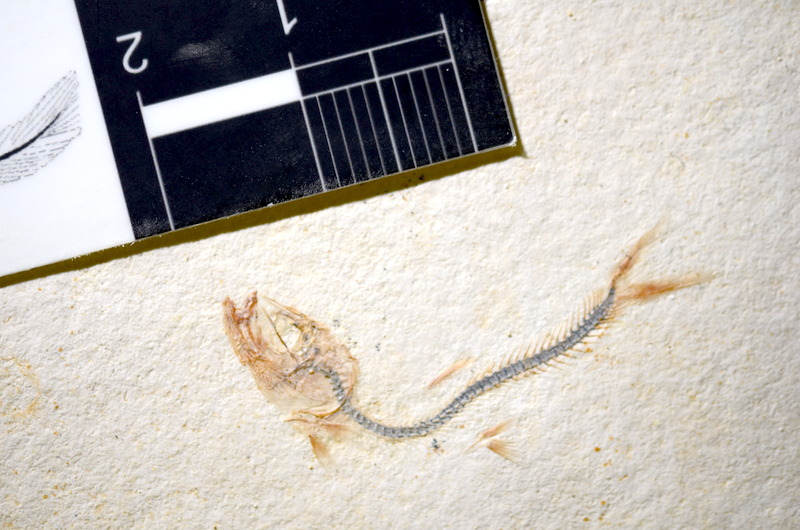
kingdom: Animalia
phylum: Chordata
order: Salmoniformes
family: Orthogonikleithridae
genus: Orthogonikleithrus
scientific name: Orthogonikleithrus hoelli
